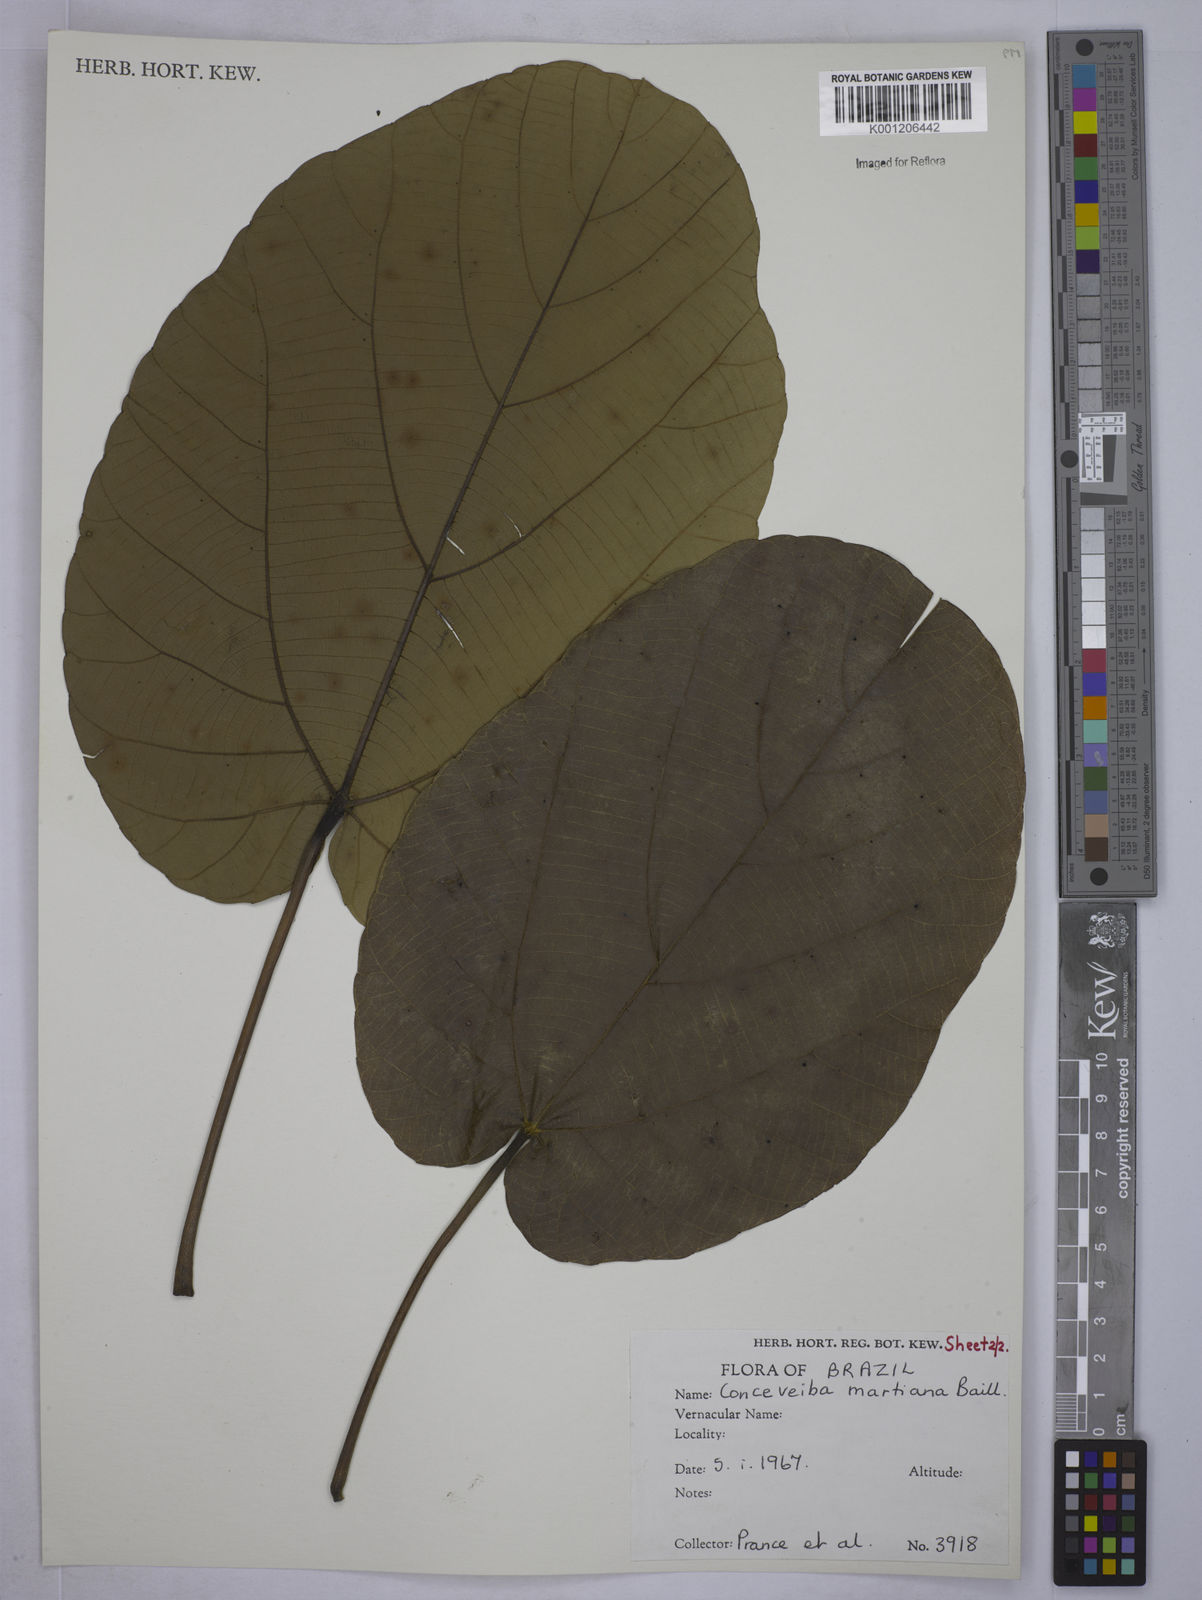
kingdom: Plantae
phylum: Tracheophyta
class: Magnoliopsida
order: Malpighiales
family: Euphorbiaceae
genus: Conceveiba
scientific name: Conceveiba martiana
